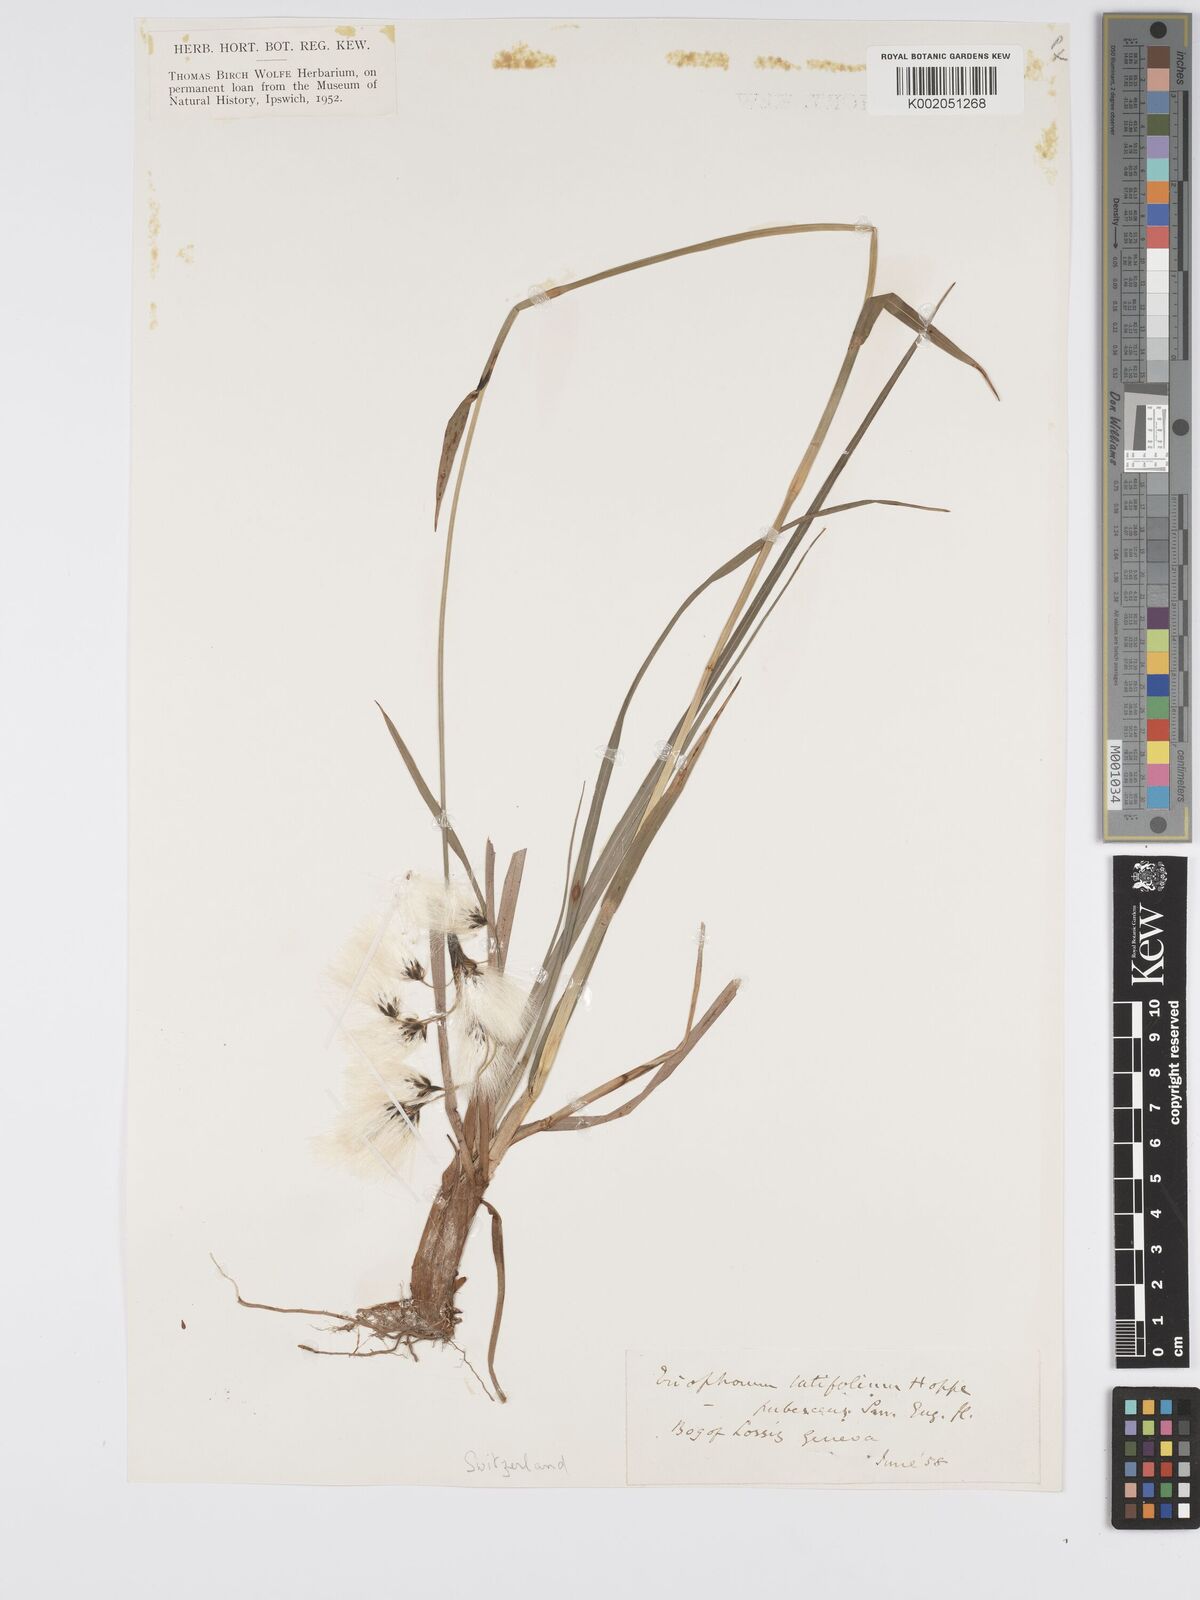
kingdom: Plantae
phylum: Tracheophyta
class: Liliopsida
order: Poales
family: Cyperaceae
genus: Eriophorum
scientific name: Eriophorum latifolium
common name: Broad-leaved cottongrass
